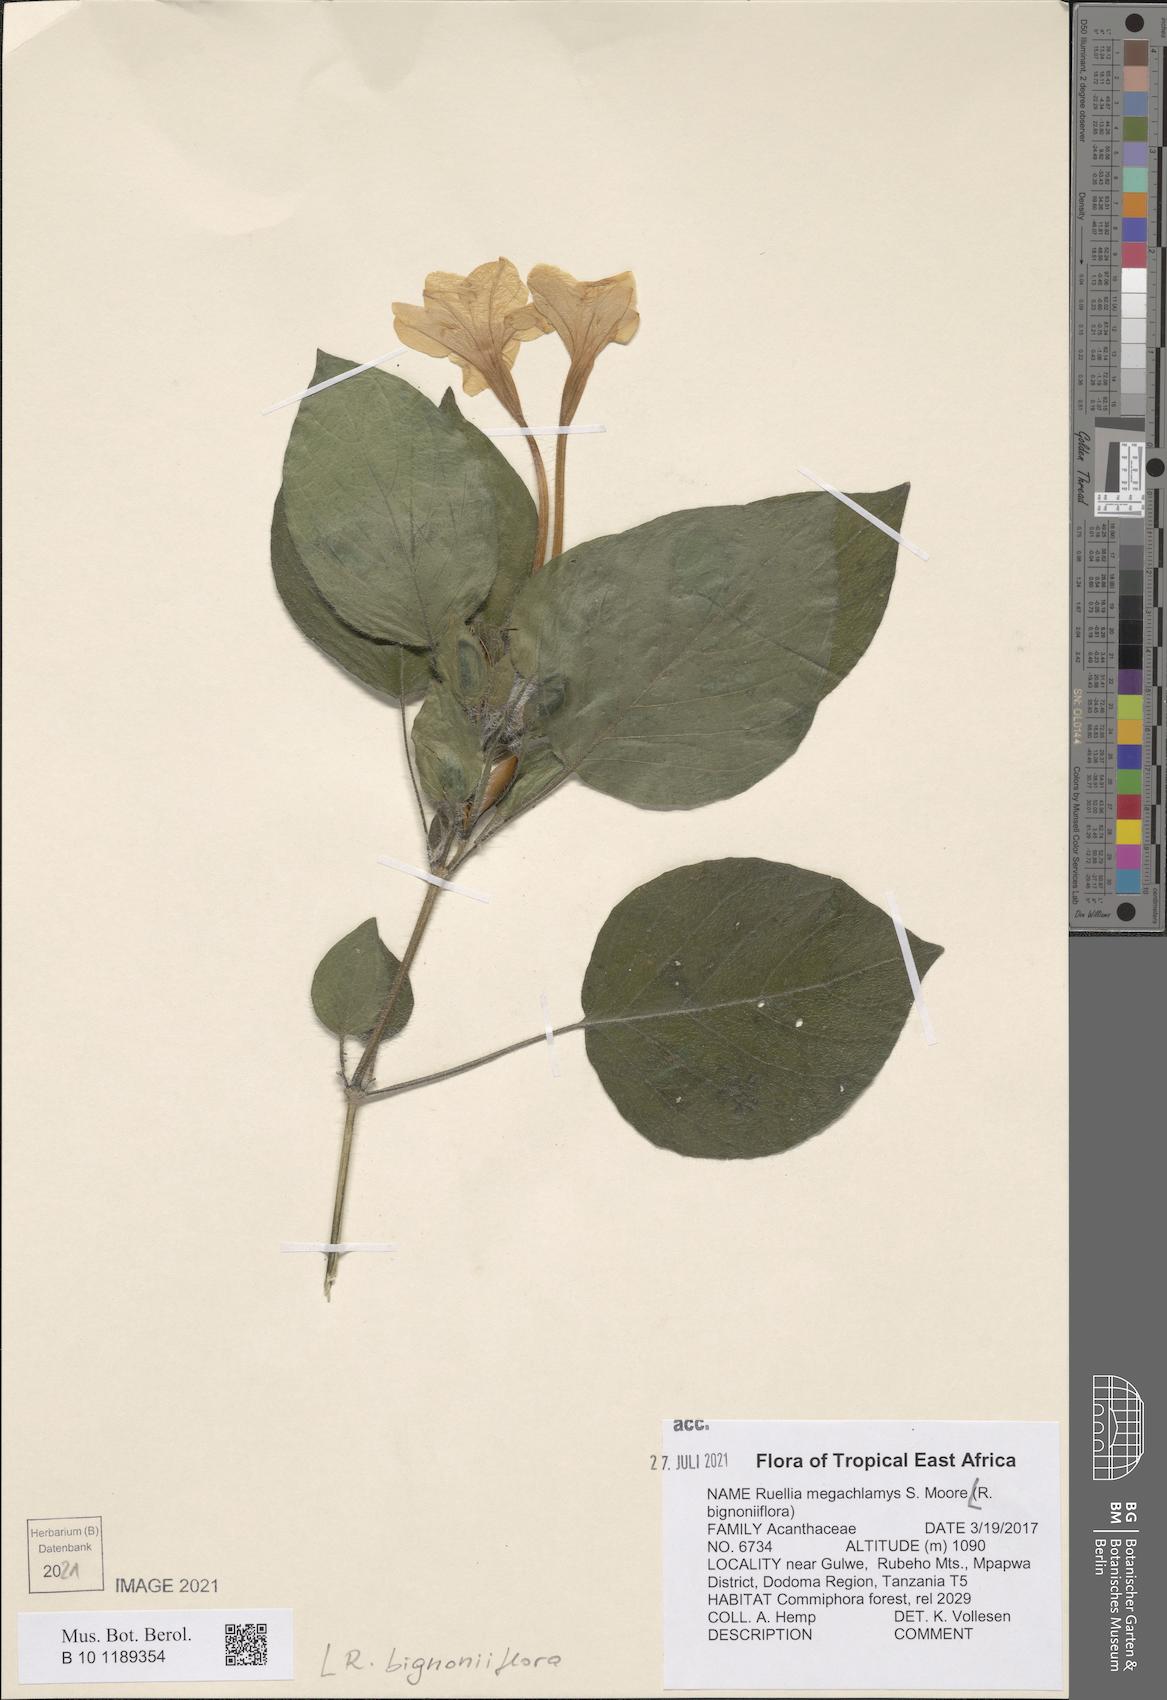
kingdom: Plantae
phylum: Tracheophyta
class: Magnoliopsida
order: Lamiales
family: Acanthaceae
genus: Ruellia
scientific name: Ruellia bignoniiflora
